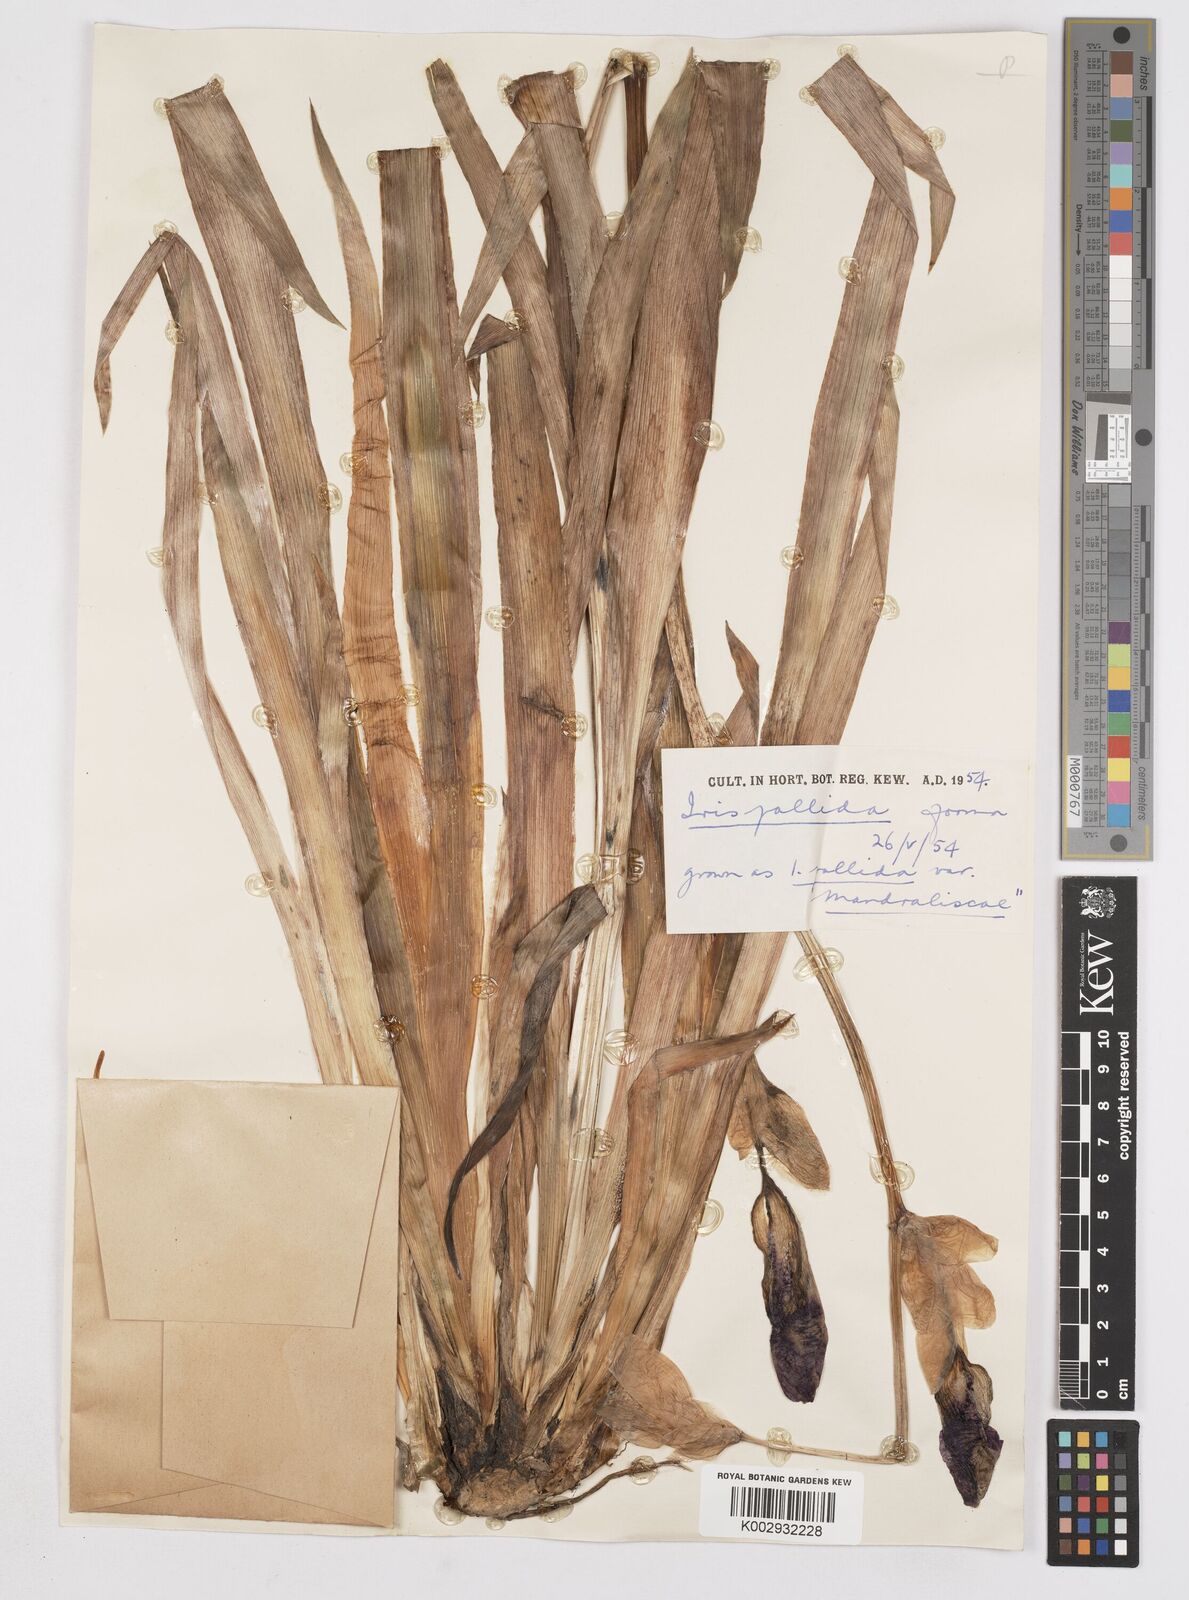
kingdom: Plantae
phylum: Tracheophyta
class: Liliopsida
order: Asparagales
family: Iridaceae
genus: Iris
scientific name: Iris
